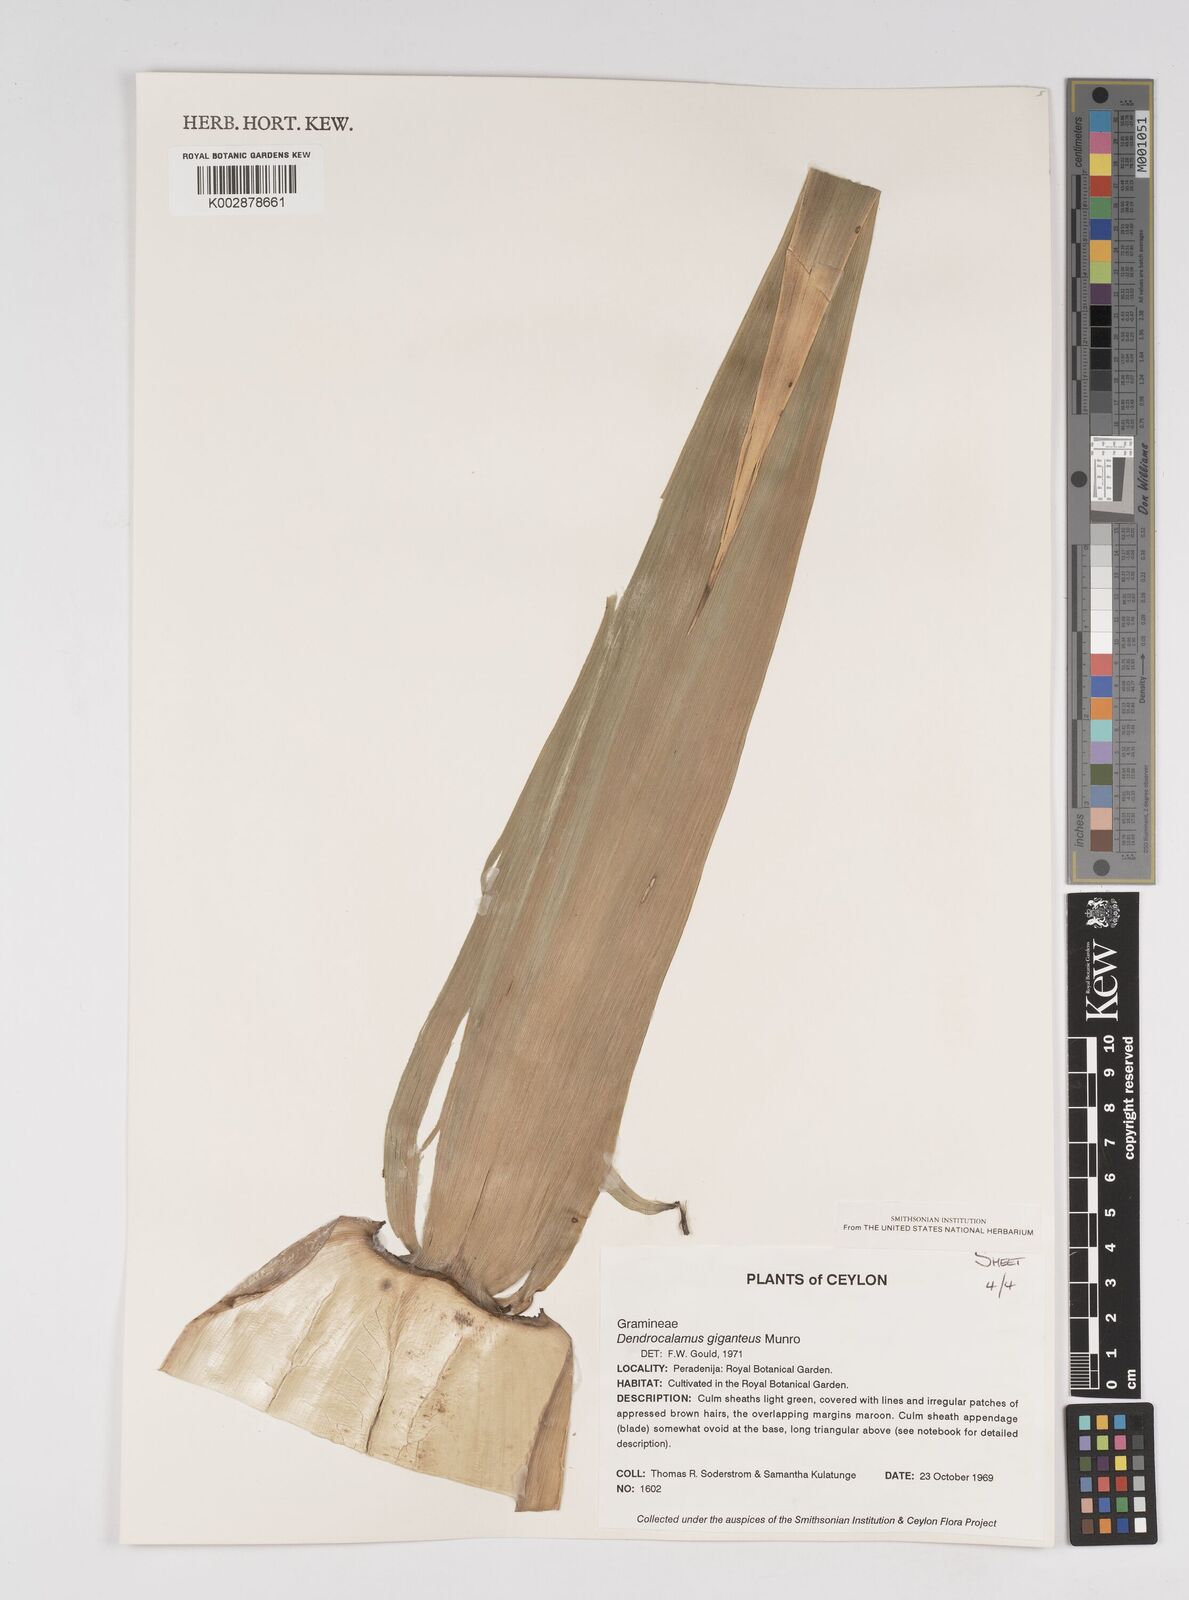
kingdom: Plantae
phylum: Tracheophyta
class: Liliopsida
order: Poales
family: Poaceae
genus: Dendrocalamus
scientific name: Dendrocalamus giganteus
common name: Giant bamboo
